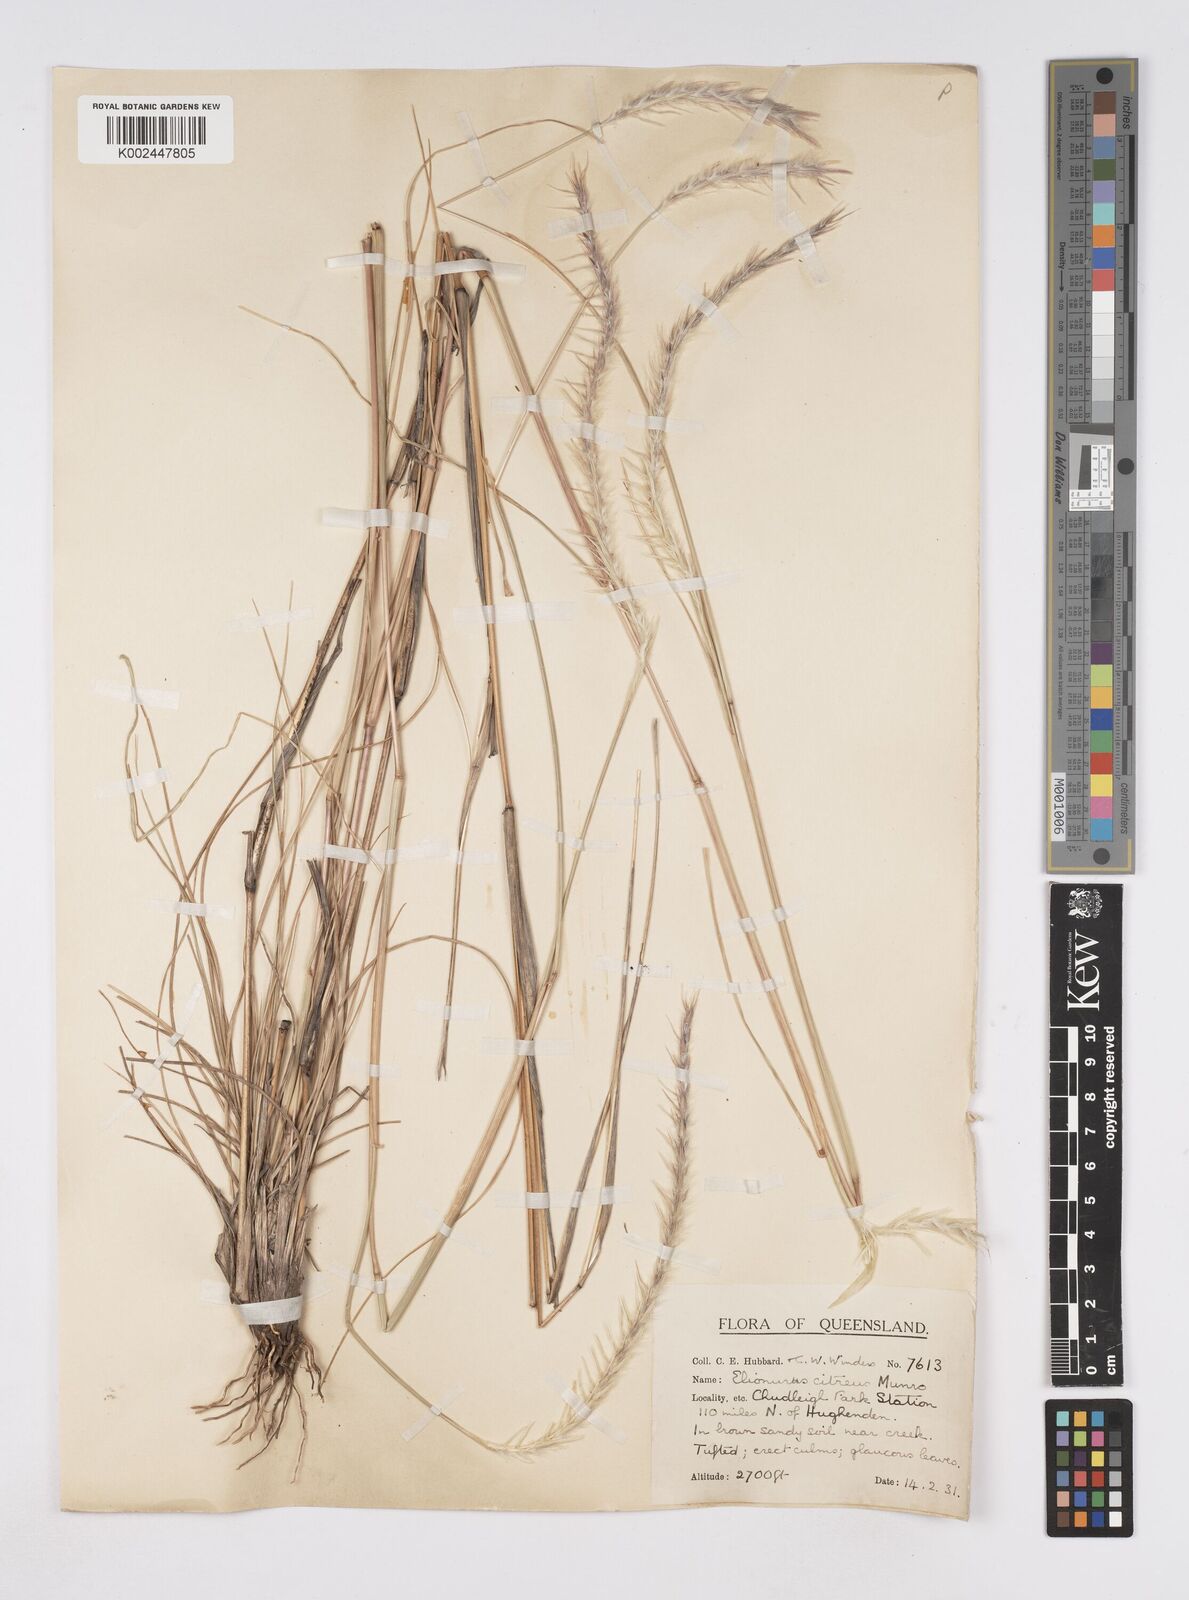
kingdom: Plantae
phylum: Tracheophyta
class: Liliopsida
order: Poales
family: Poaceae
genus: Elionurus
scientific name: Elionurus citreus
